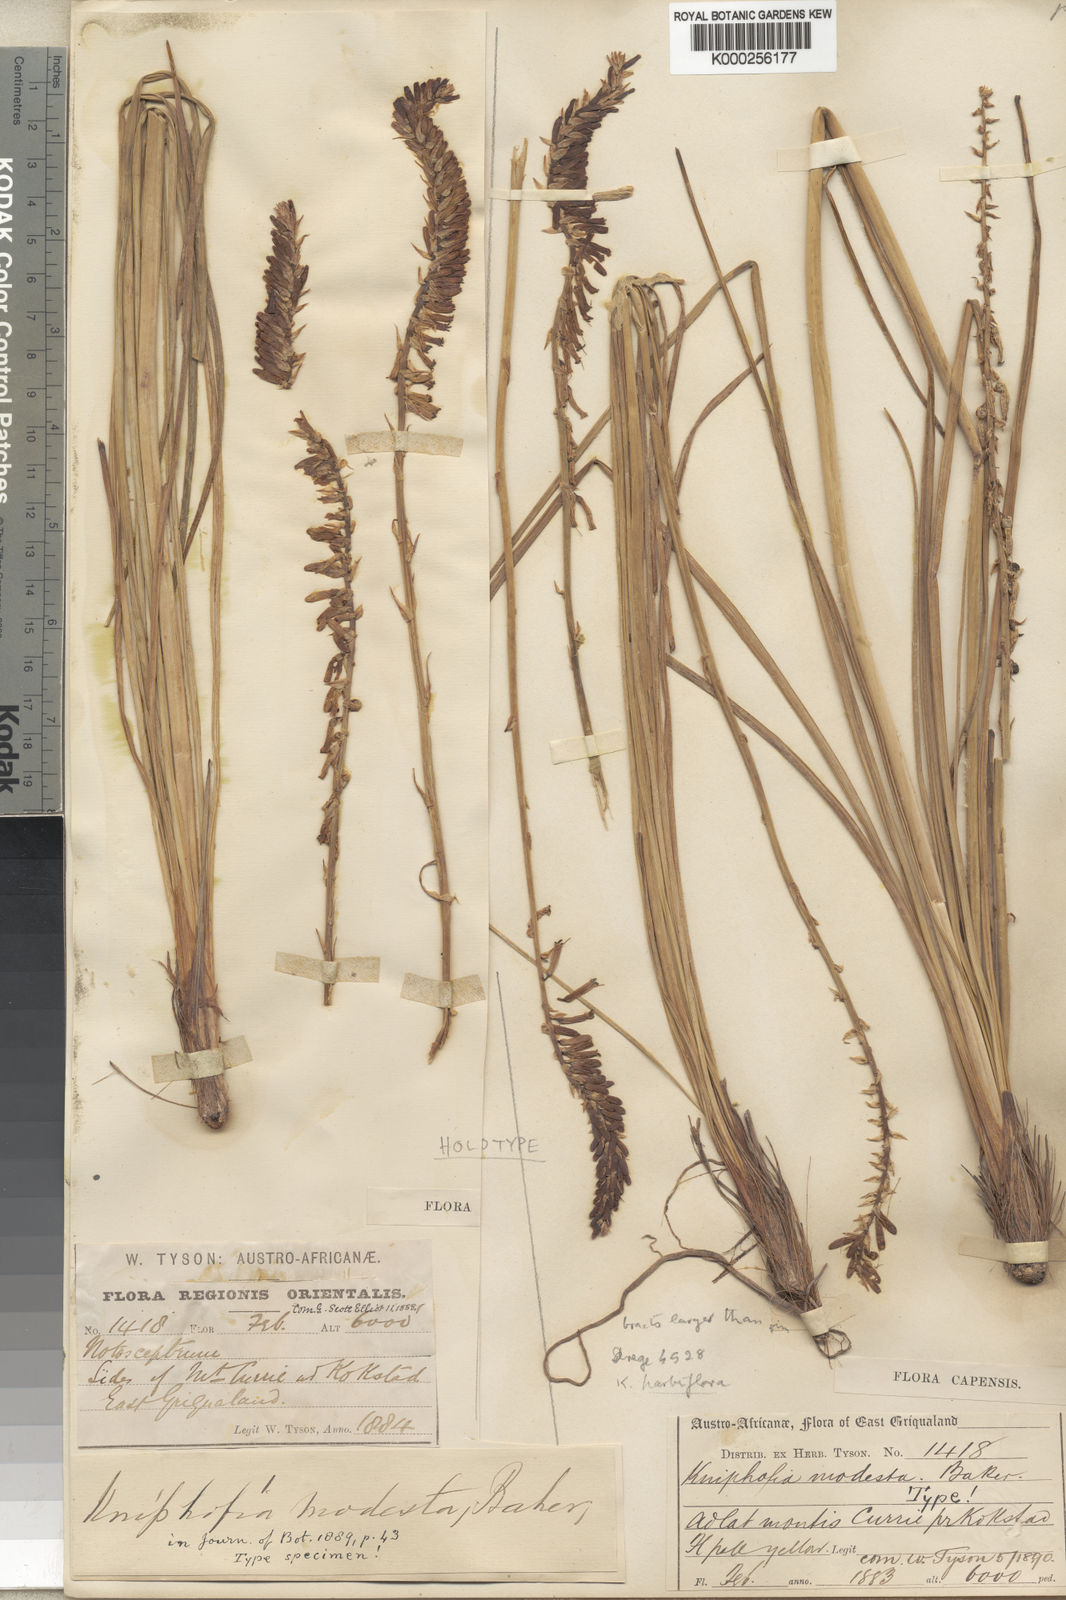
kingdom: Plantae
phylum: Tracheophyta
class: Liliopsida
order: Asparagales
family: Asphodelaceae
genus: Kniphofia
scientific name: Kniphofia parviflora
